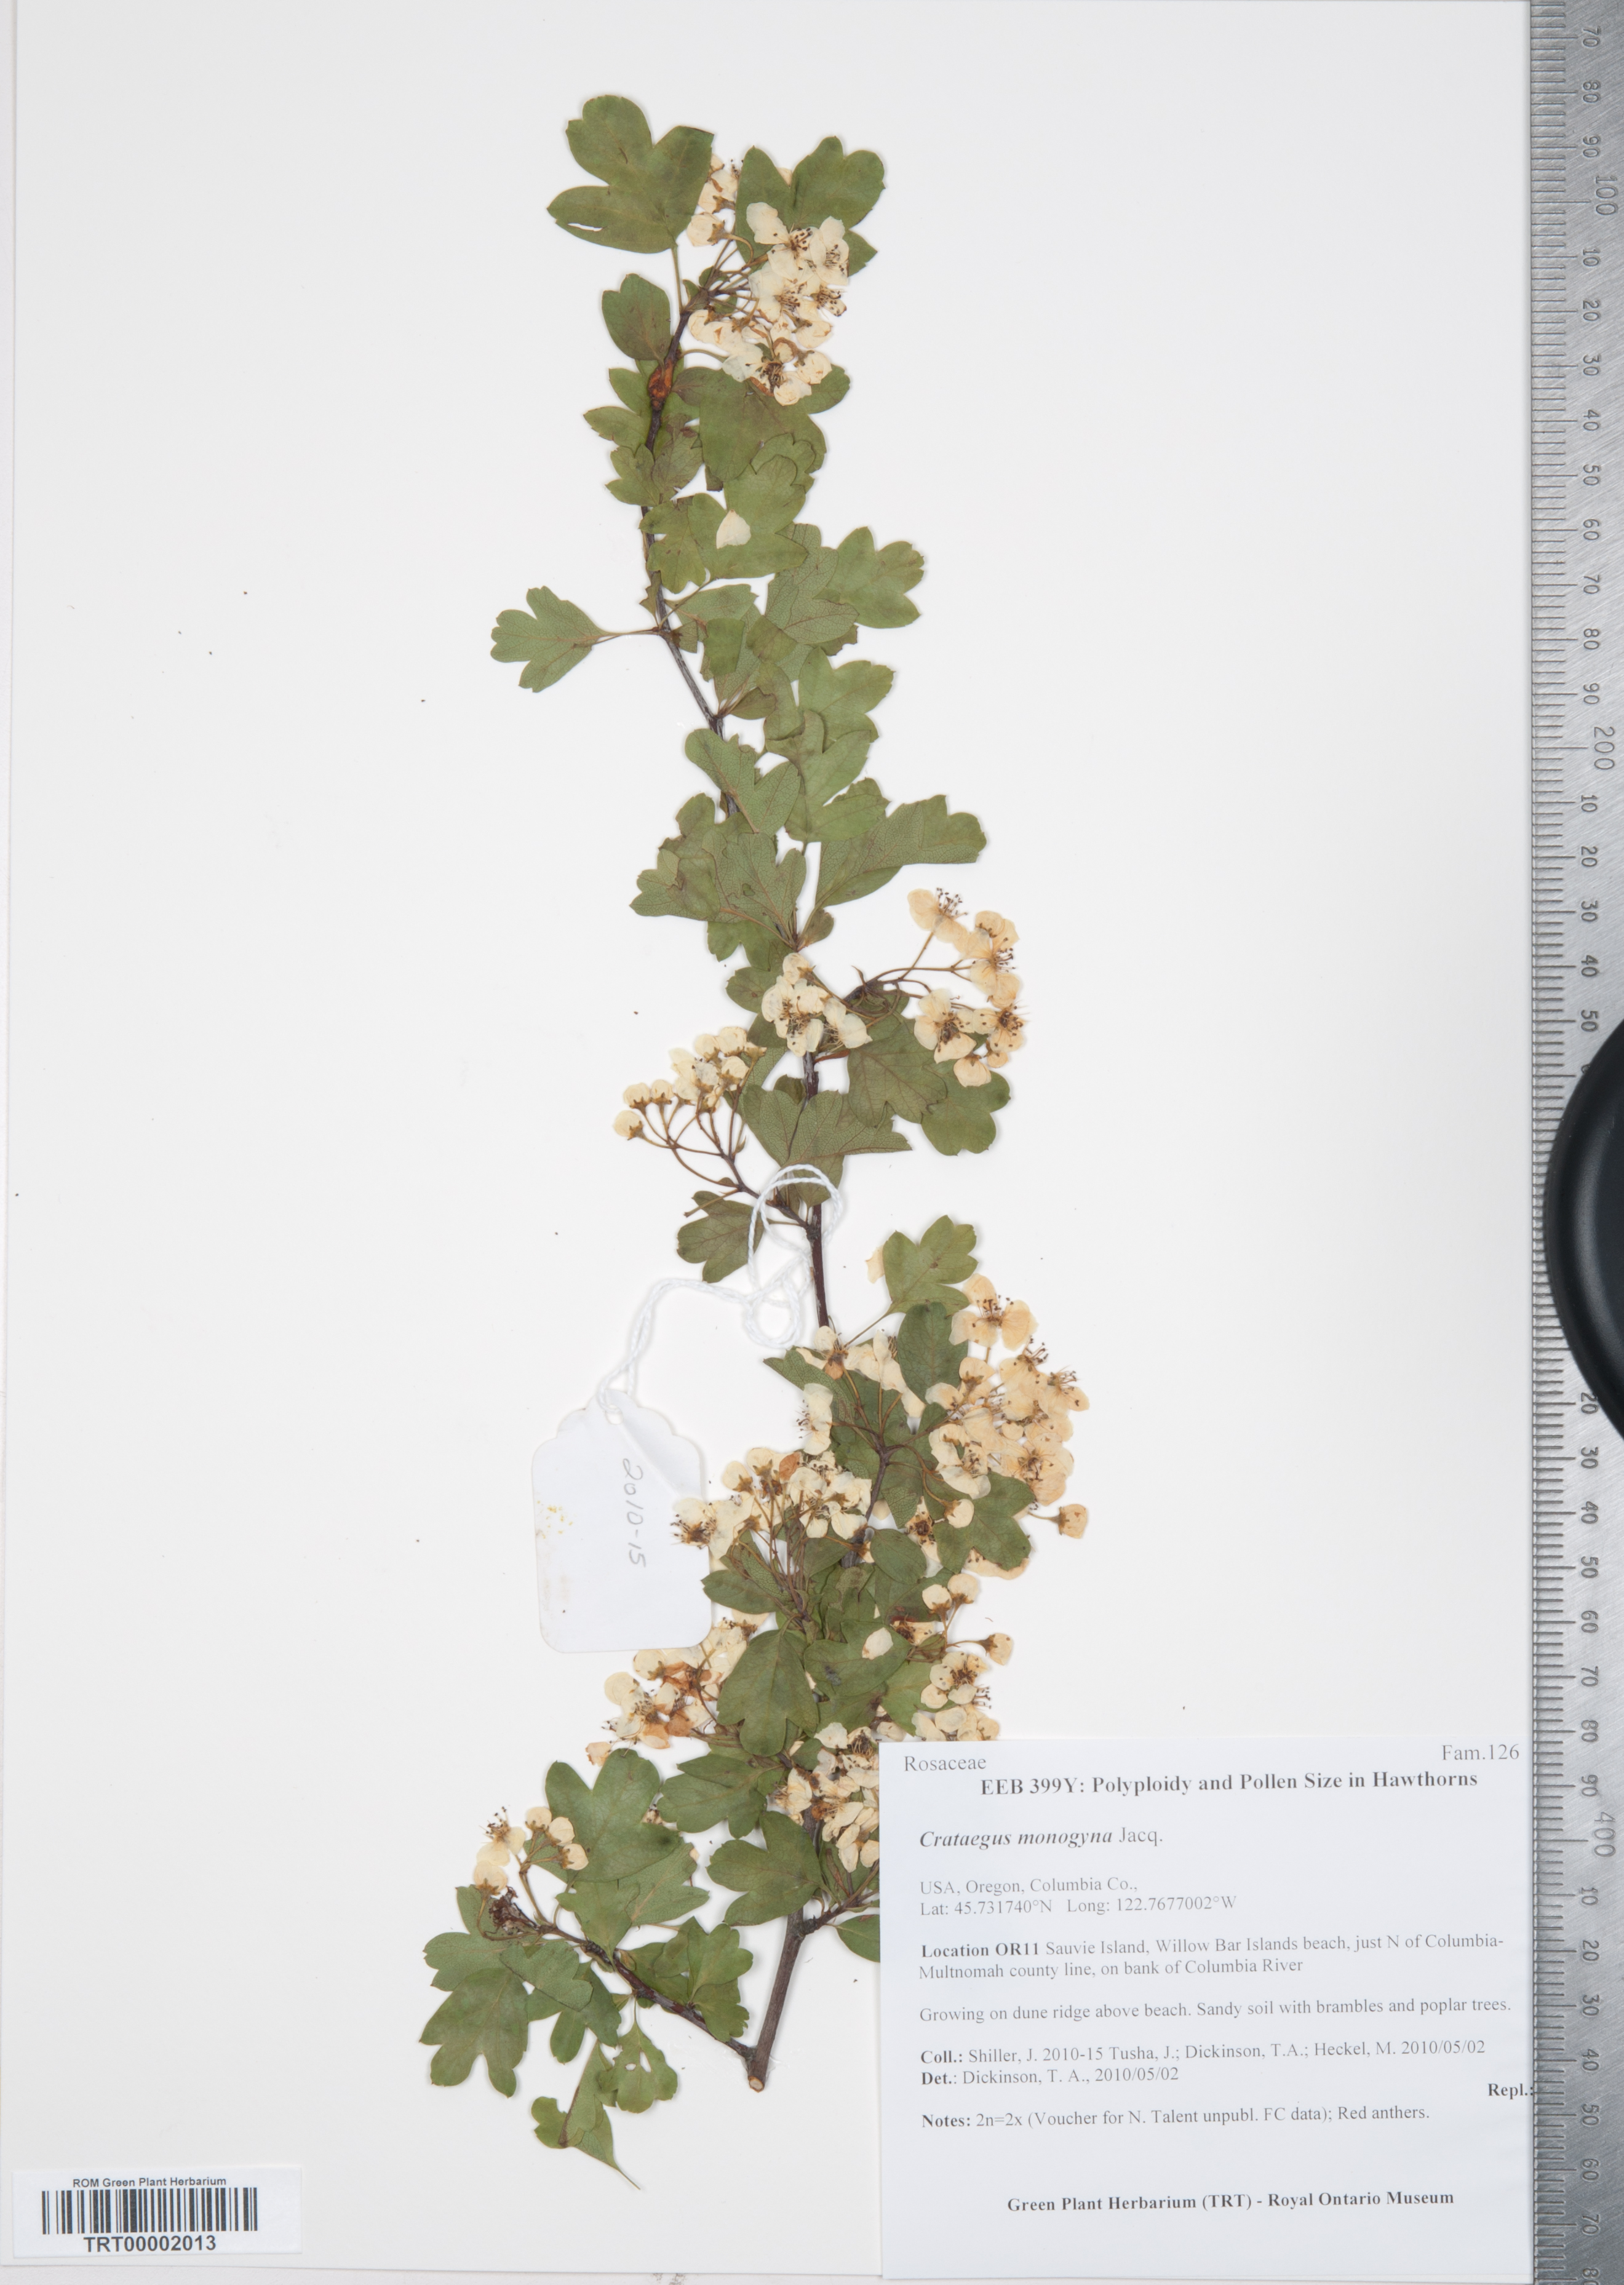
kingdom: Plantae
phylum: Tracheophyta
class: Magnoliopsida
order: Rosales
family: Rosaceae
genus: Crataegus
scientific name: Crataegus monogyna
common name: Hawthorn
